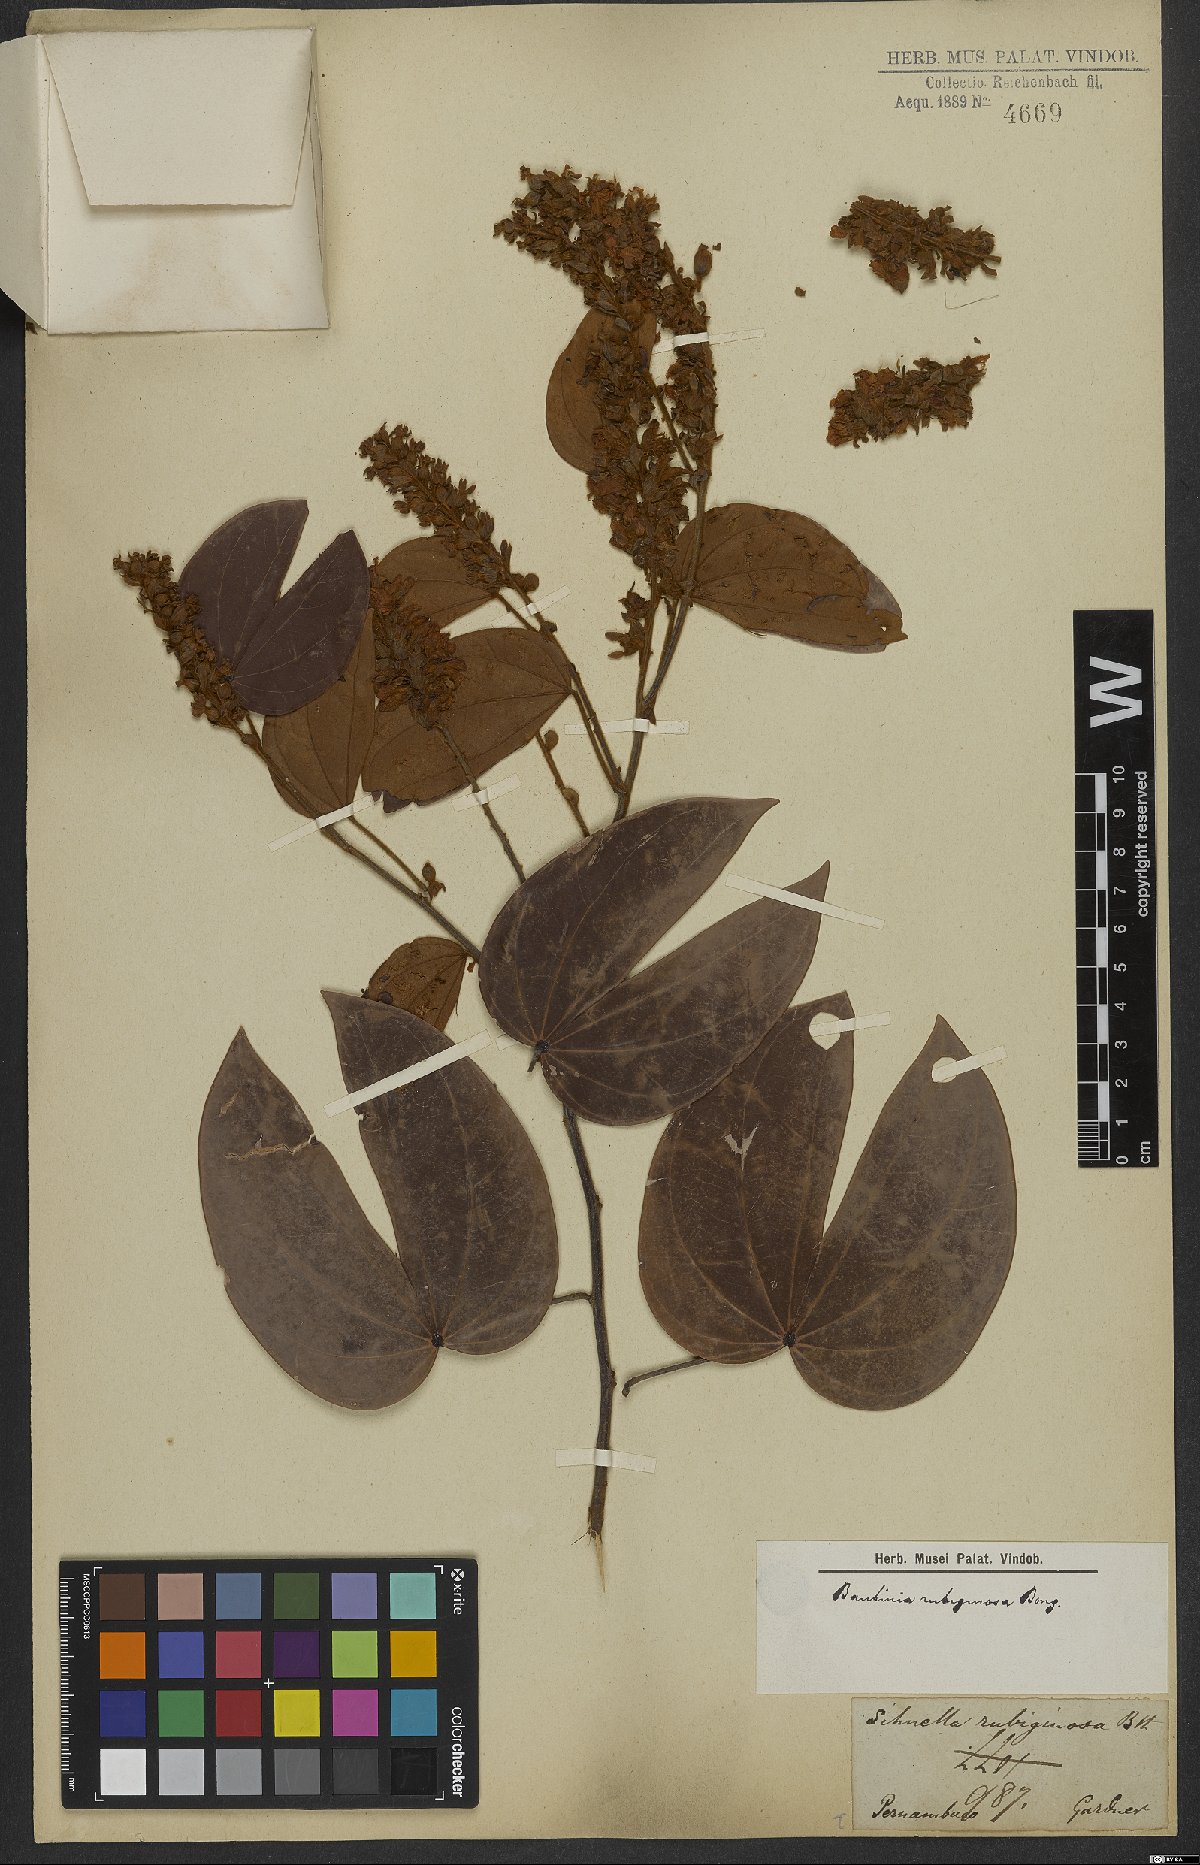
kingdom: Plantae
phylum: Tracheophyta
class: Magnoliopsida
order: Fabales
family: Fabaceae
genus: Schnella
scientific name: Schnella outimouta
